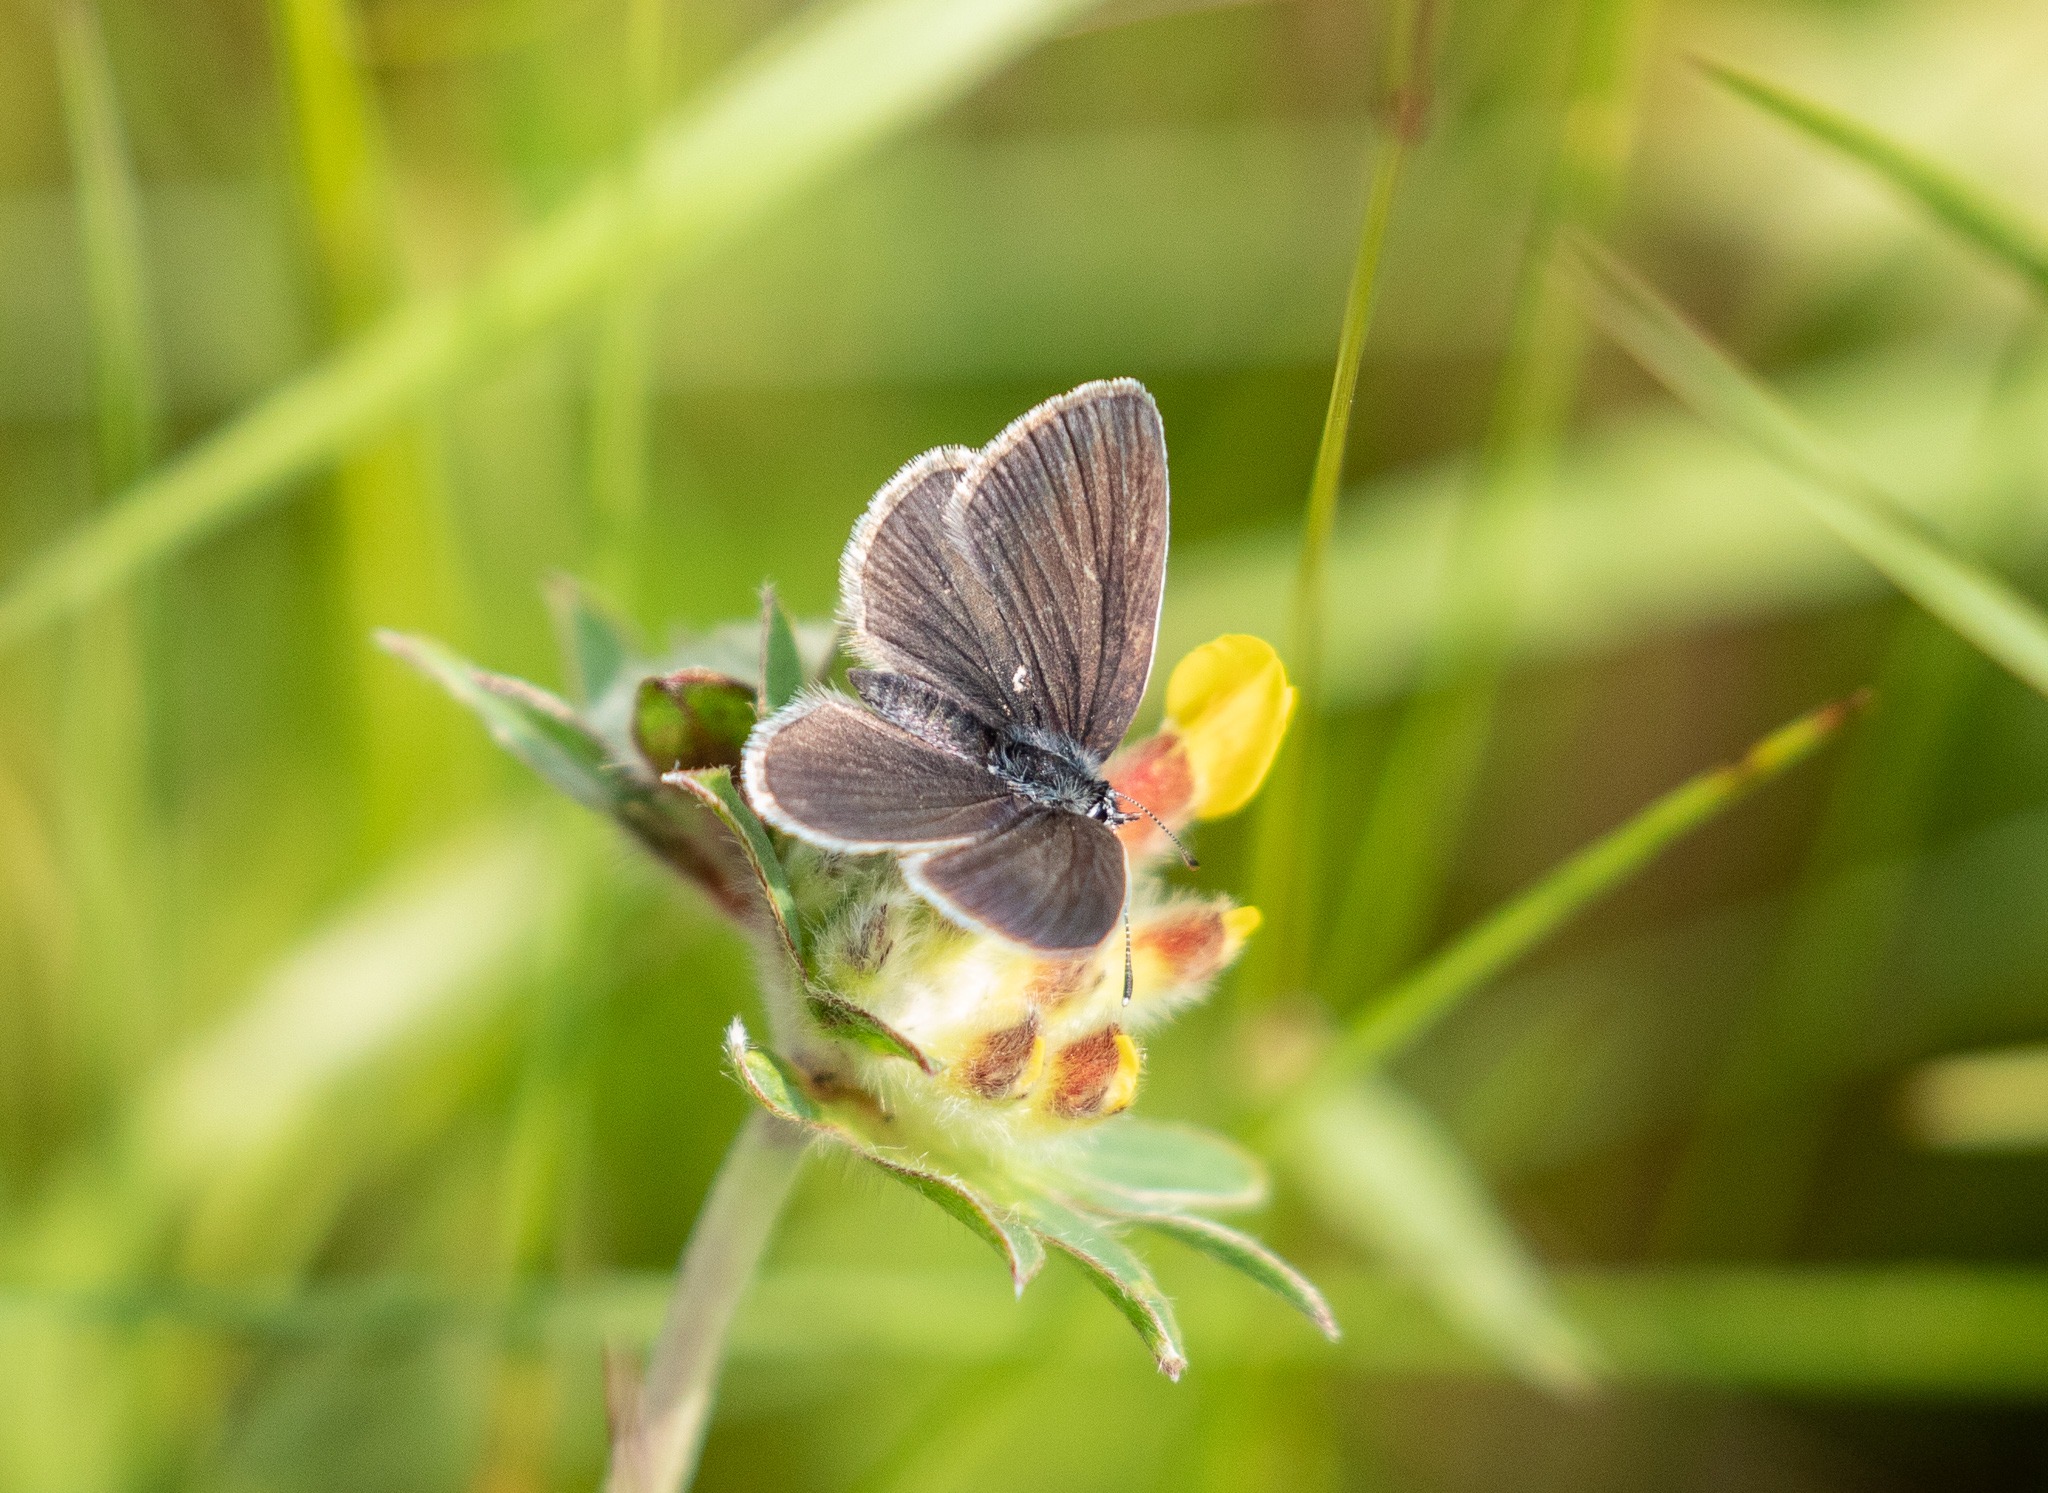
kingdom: Animalia
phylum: Arthropoda
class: Insecta
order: Lepidoptera
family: Lycaenidae
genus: Cupido
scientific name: Cupido minimus
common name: Dværgblåfugl
